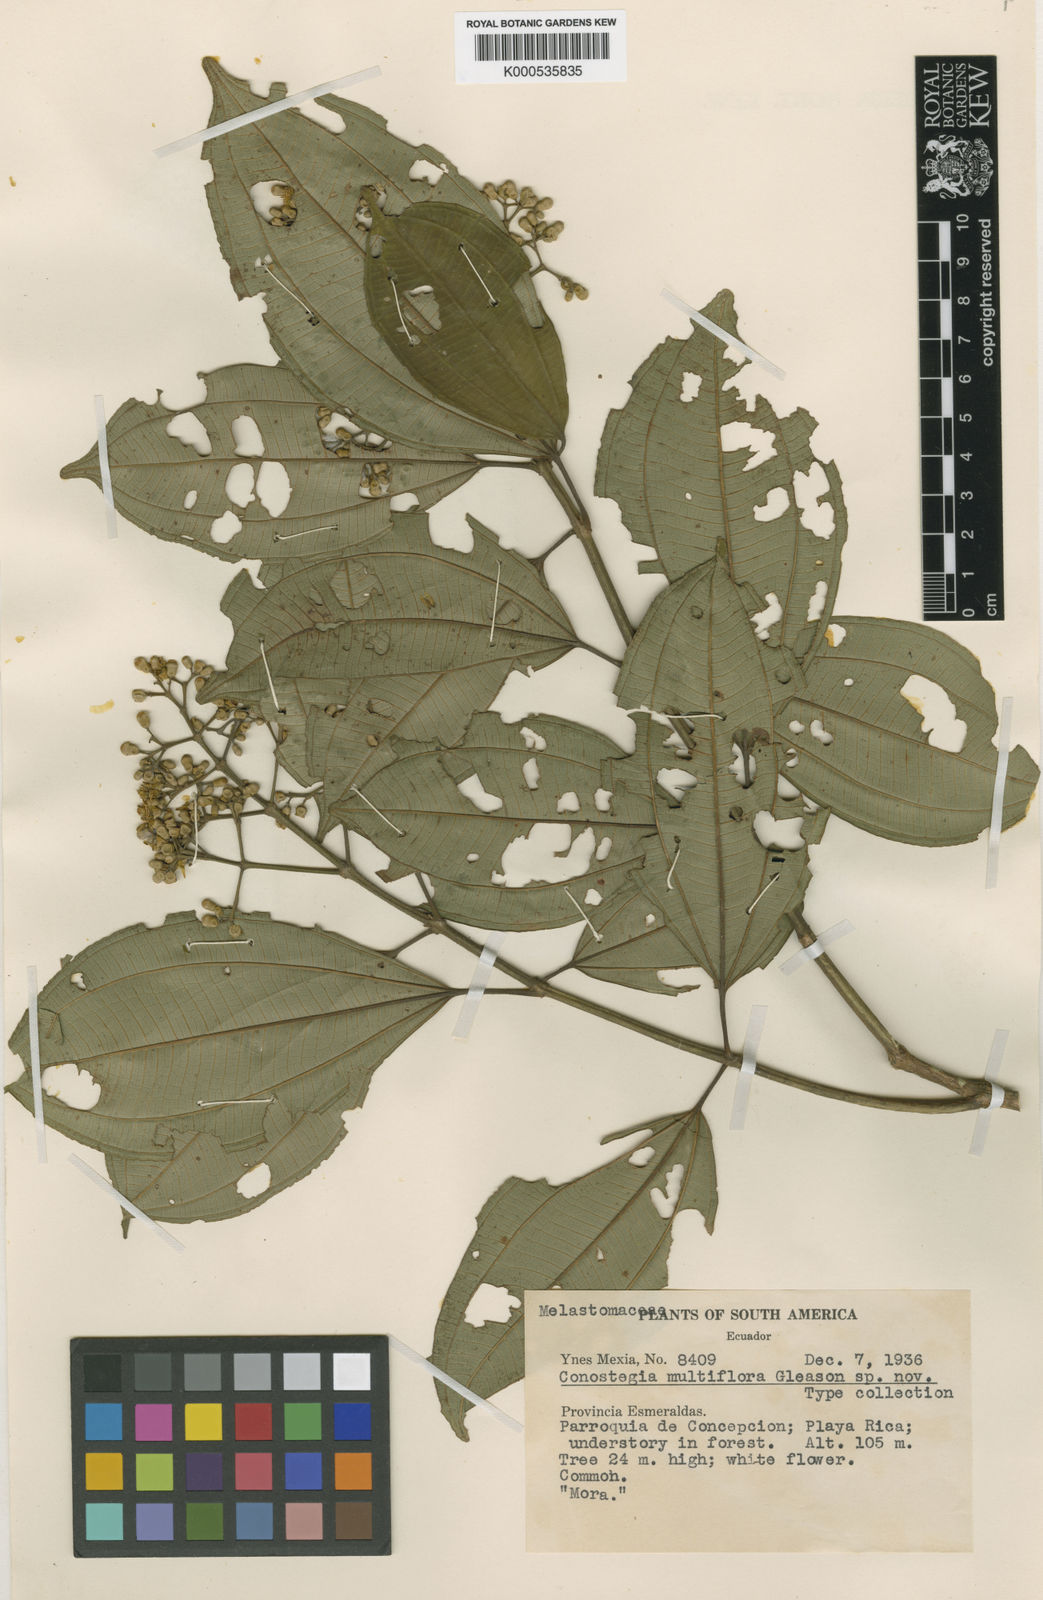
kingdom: Plantae
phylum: Tracheophyta
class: Magnoliopsida
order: Myrtales
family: Melastomataceae
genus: Miconia
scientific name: Miconia cooperi
